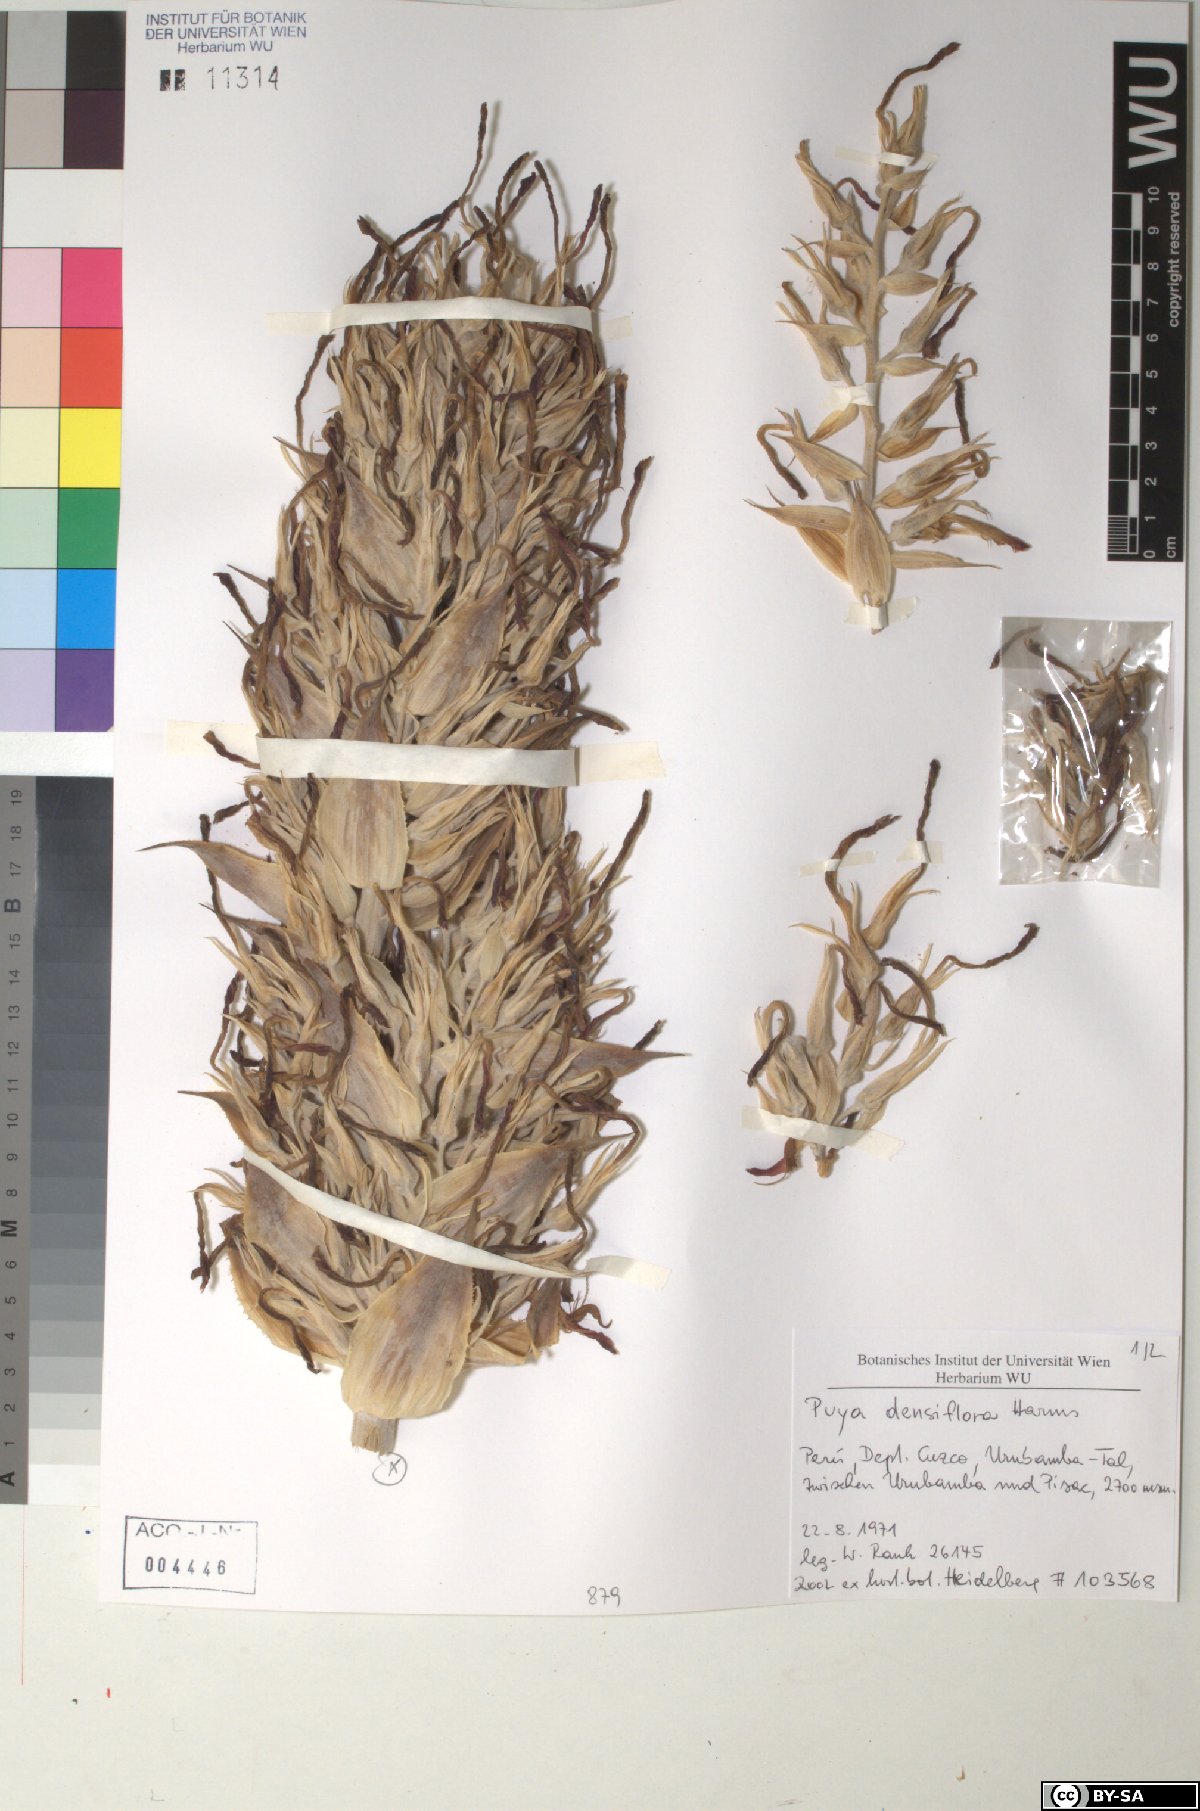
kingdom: Plantae
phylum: Tracheophyta
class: Liliopsida
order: Poales
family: Bromeliaceae
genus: Puya
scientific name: Puya densiflora
